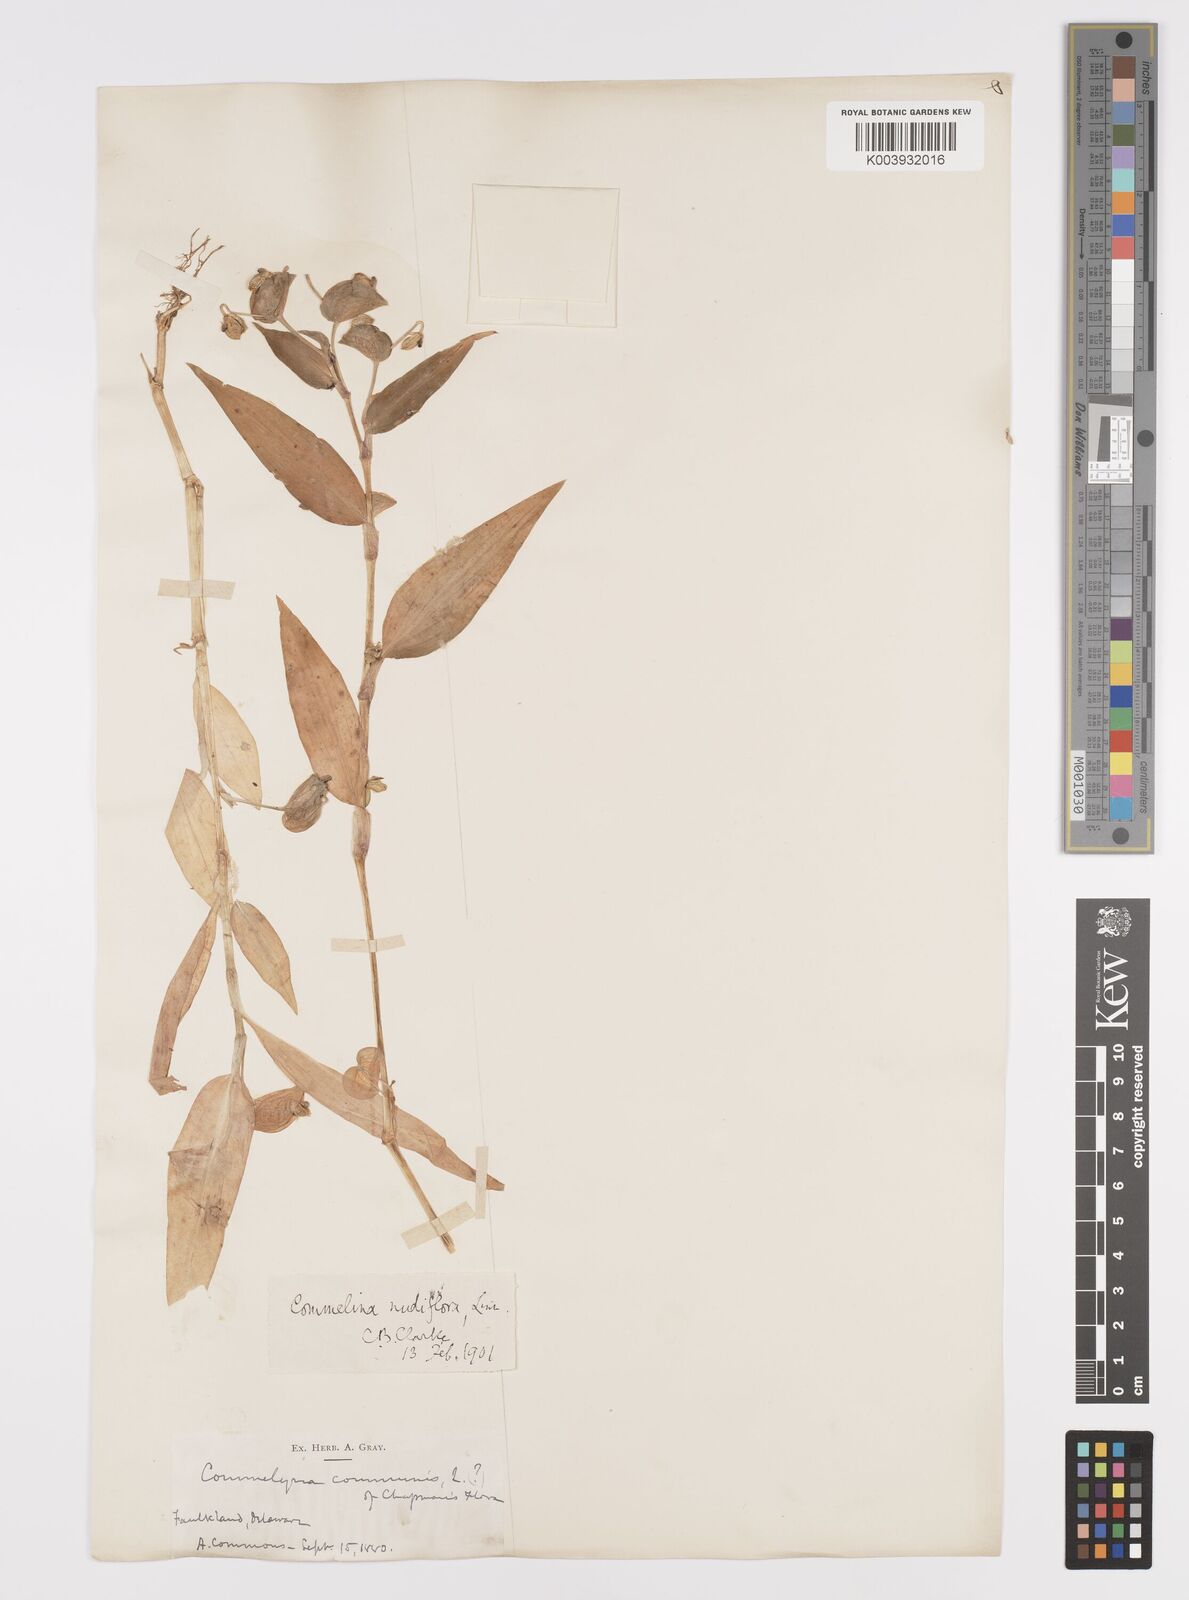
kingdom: Plantae
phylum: Tracheophyta
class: Liliopsida
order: Commelinales
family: Commelinaceae
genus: Commelina
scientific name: Commelina communis
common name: Asiatic dayflower
